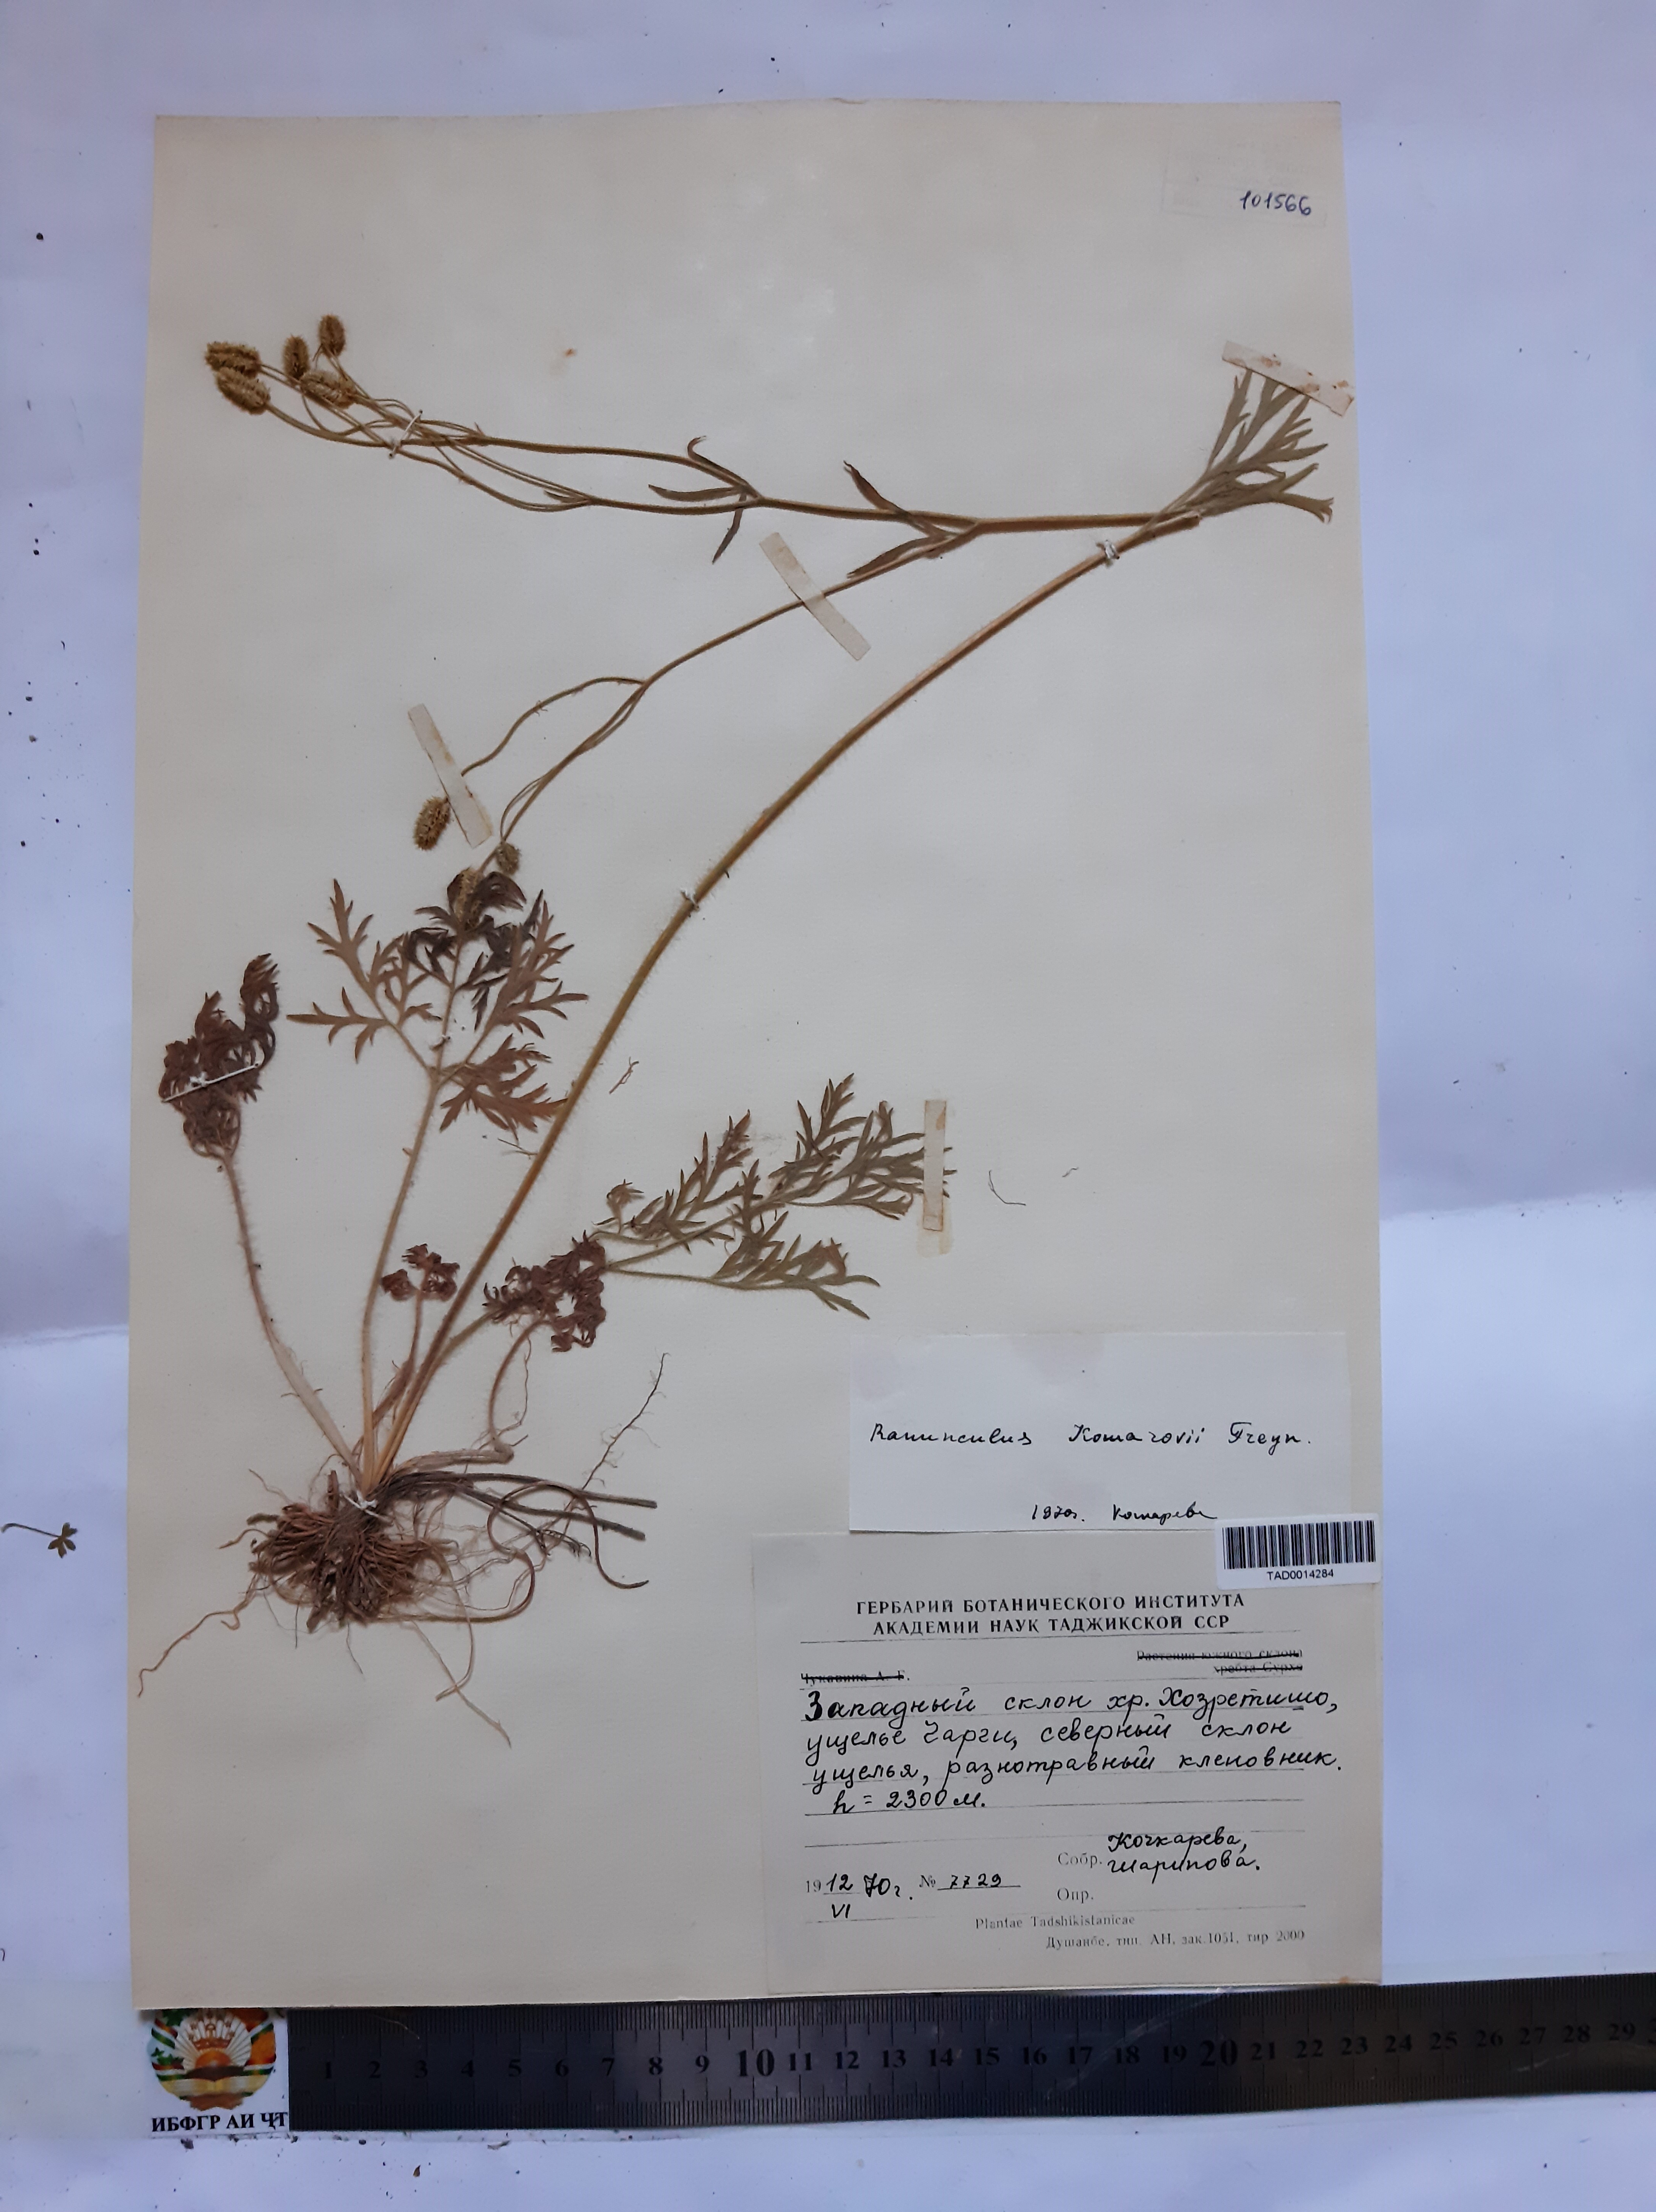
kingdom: Plantae
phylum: Tracheophyta
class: Magnoliopsida
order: Ranunculales
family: Ranunculaceae
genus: Ranunculus
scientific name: Ranunculus komarovii
